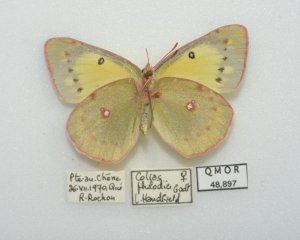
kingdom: Animalia
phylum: Arthropoda
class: Insecta
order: Lepidoptera
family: Pieridae
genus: Colias
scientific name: Colias philodice
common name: Clouded Sulphur
